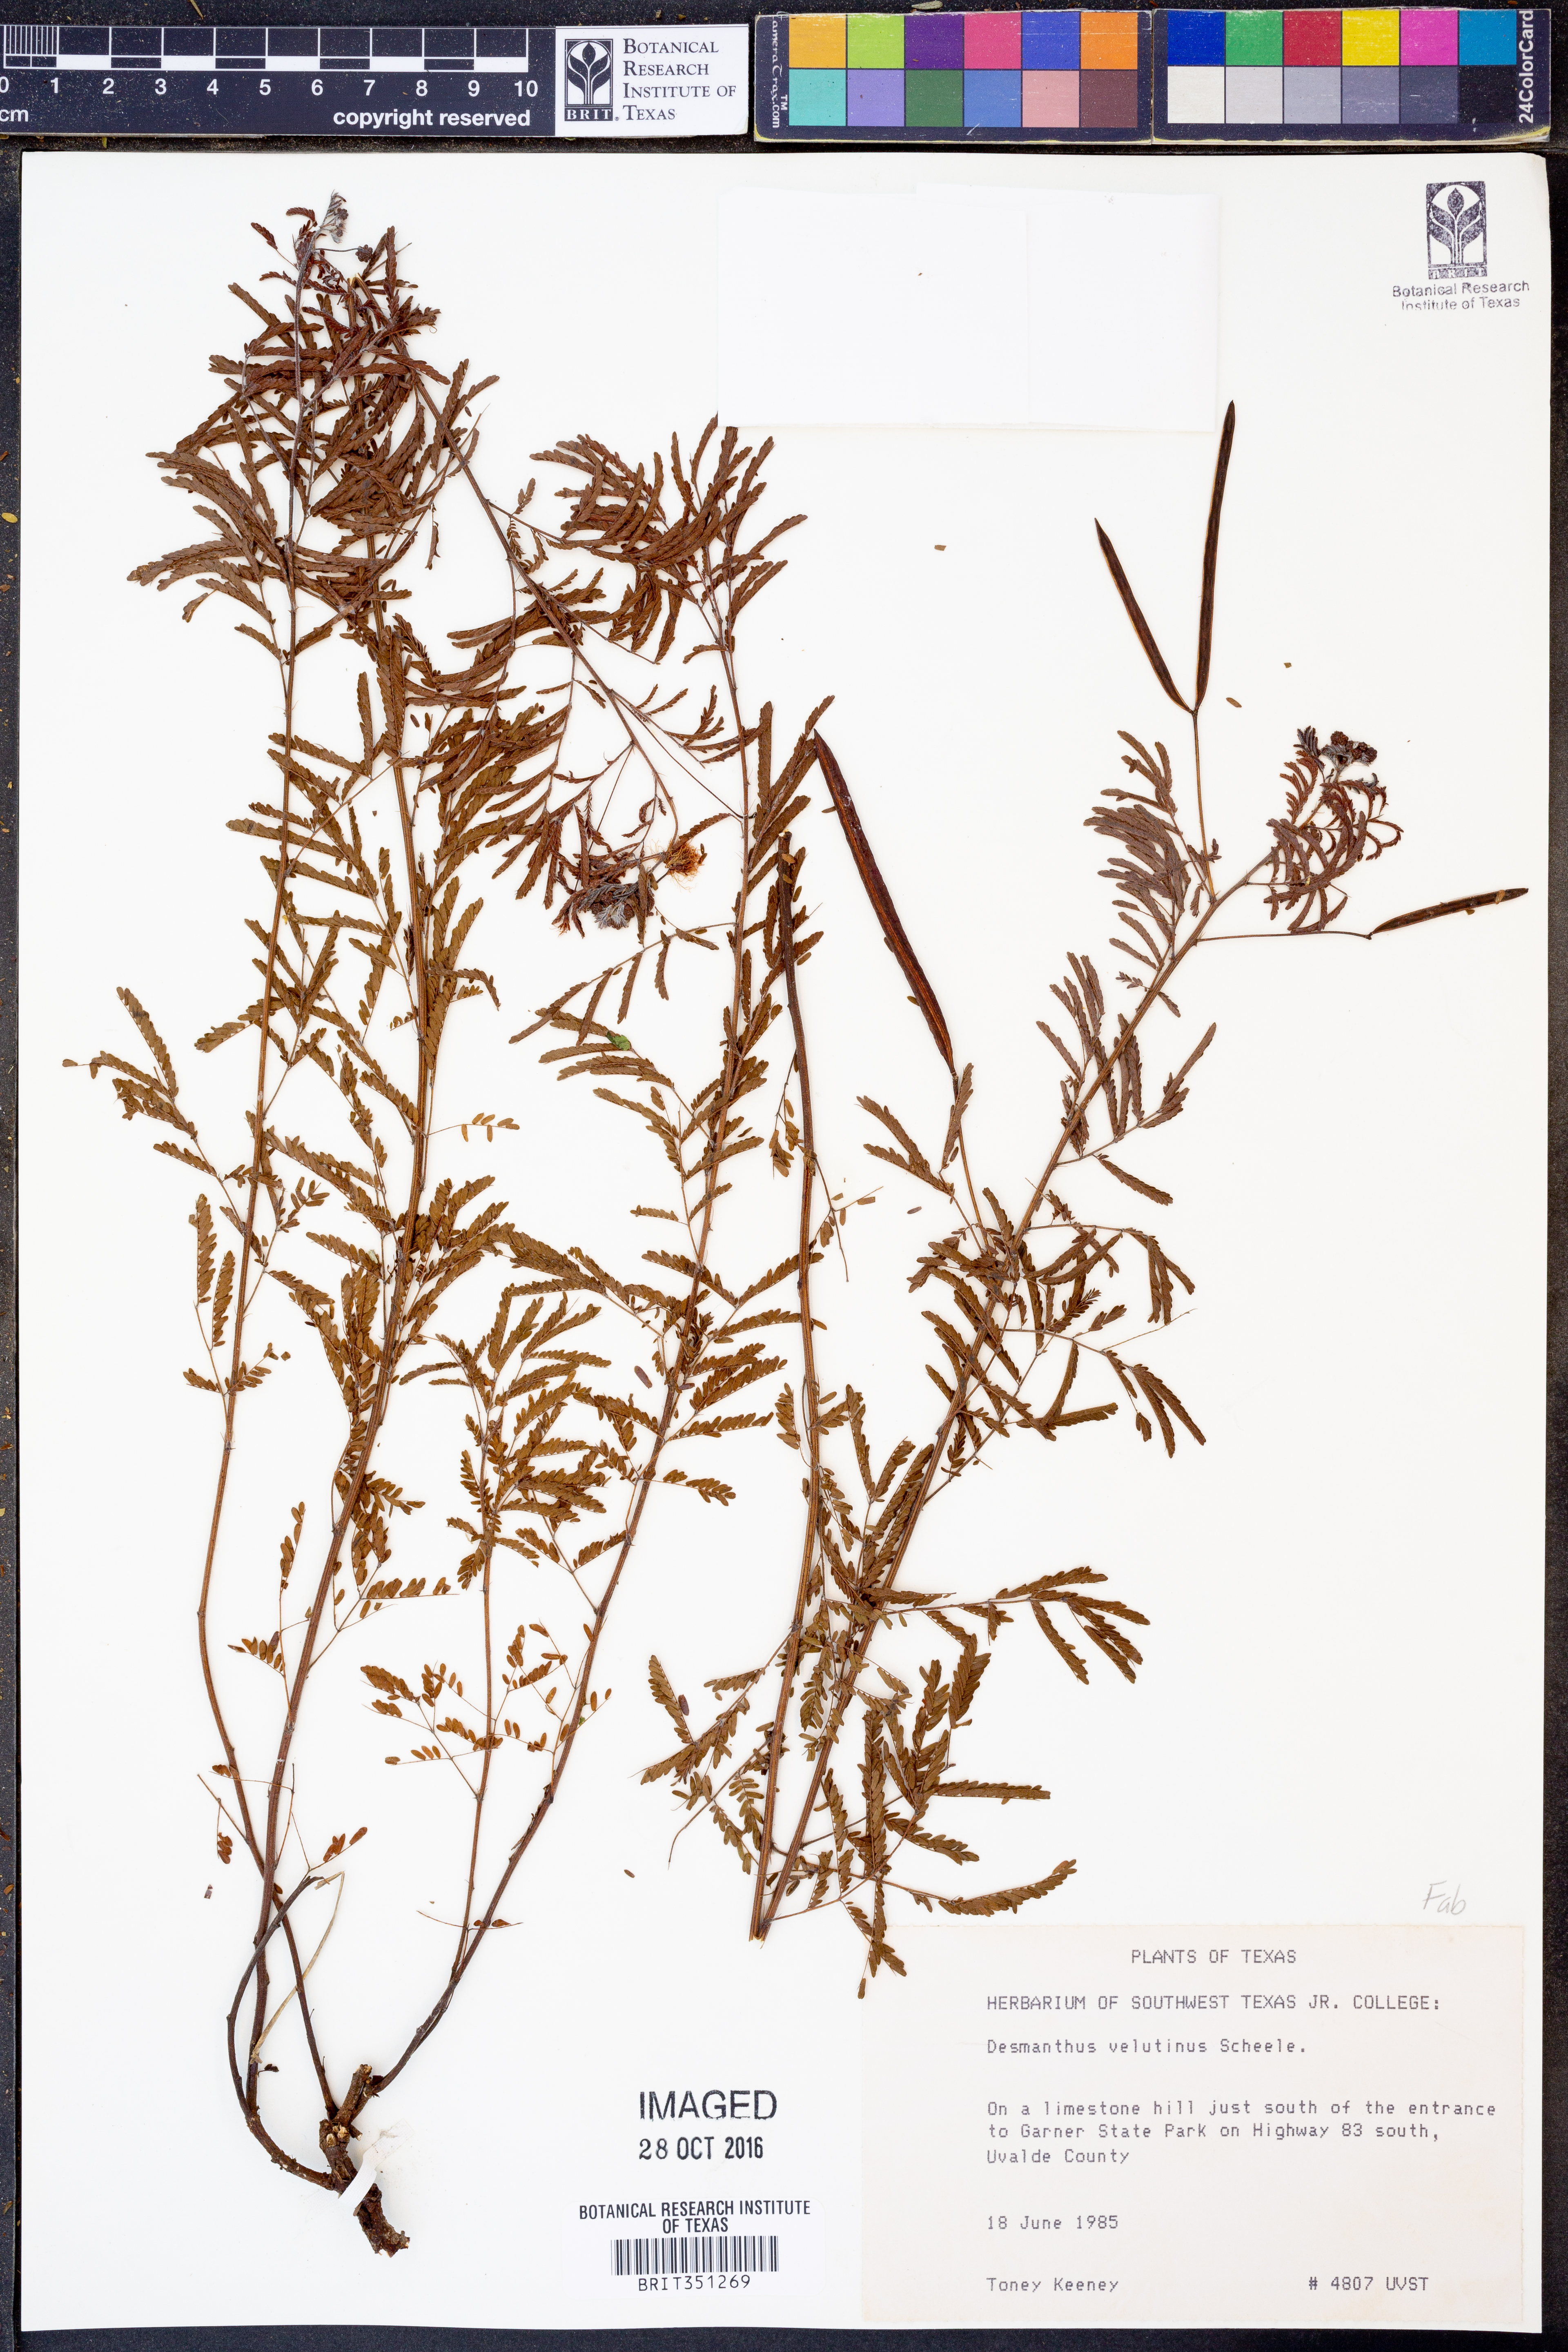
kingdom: Plantae
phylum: Tracheophyta
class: Magnoliopsida
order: Fabales
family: Fabaceae
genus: Desmanthus
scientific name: Desmanthus velutinus
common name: Velvet bundle-flower
